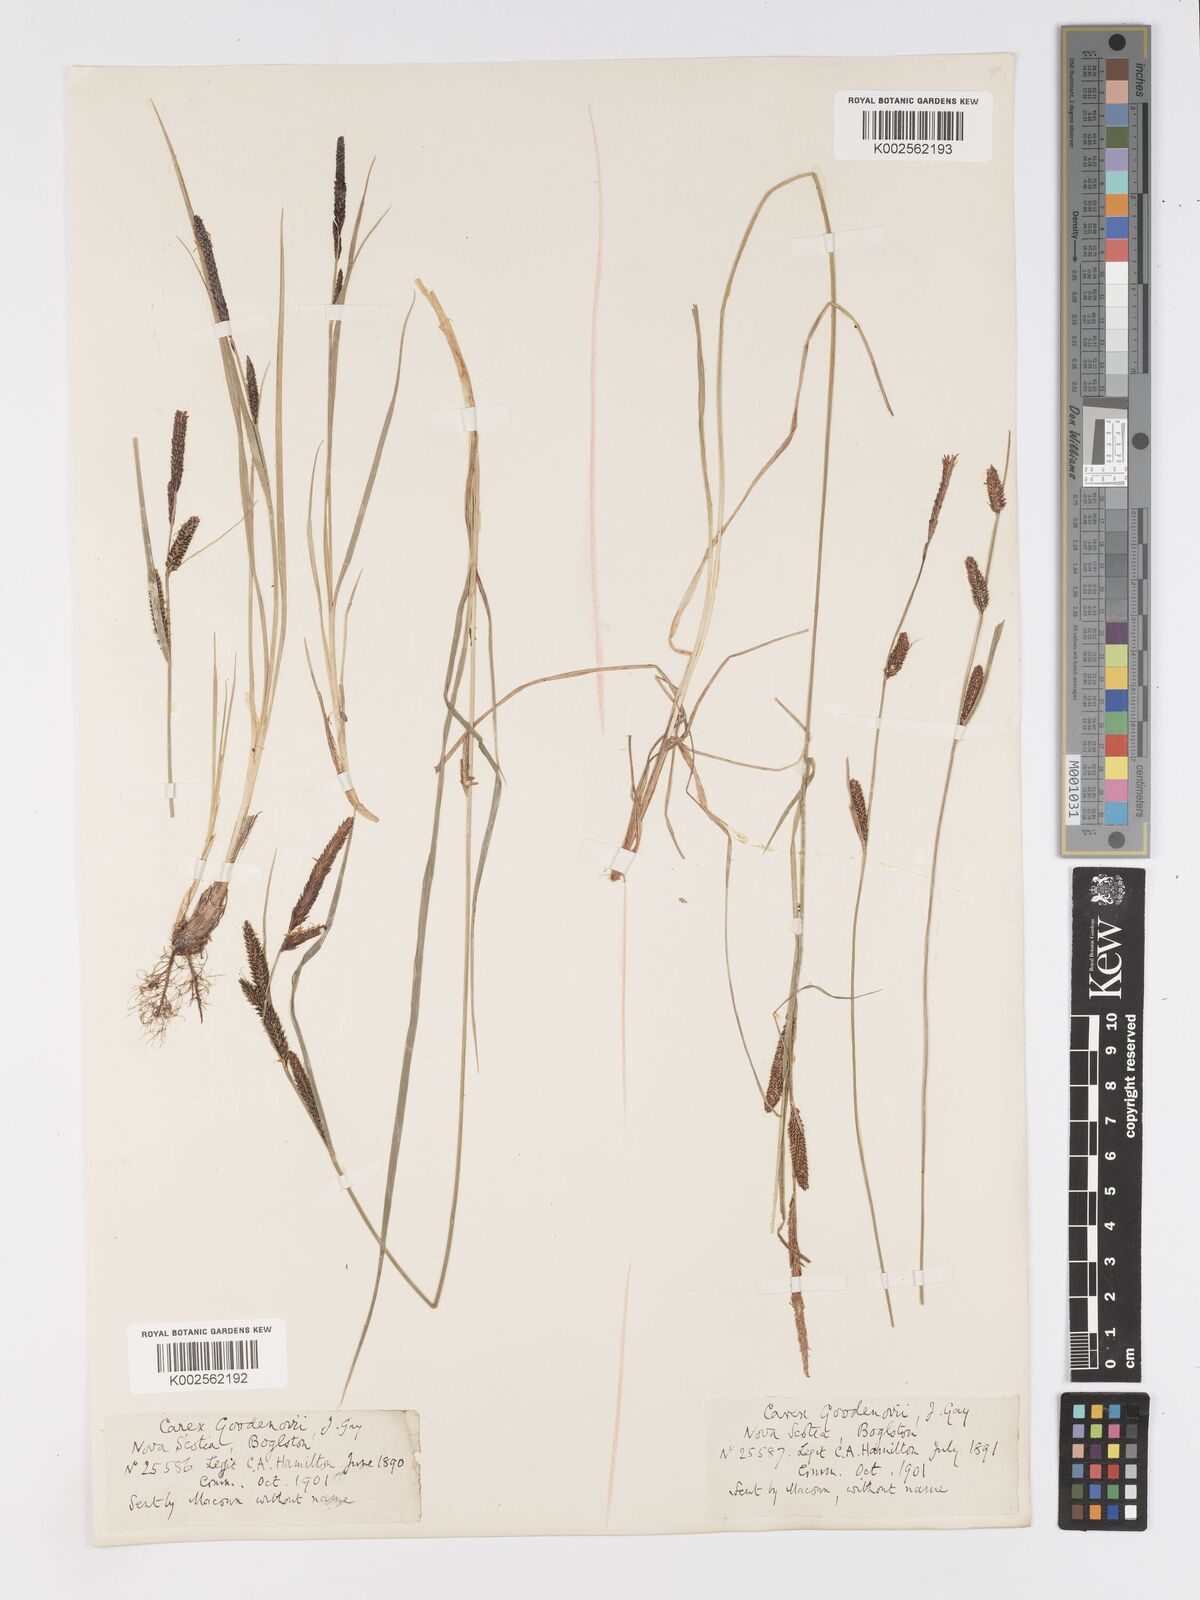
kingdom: Plantae
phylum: Tracheophyta
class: Liliopsida
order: Poales
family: Cyperaceae
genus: Carex
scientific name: Carex nigra
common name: Common sedge
